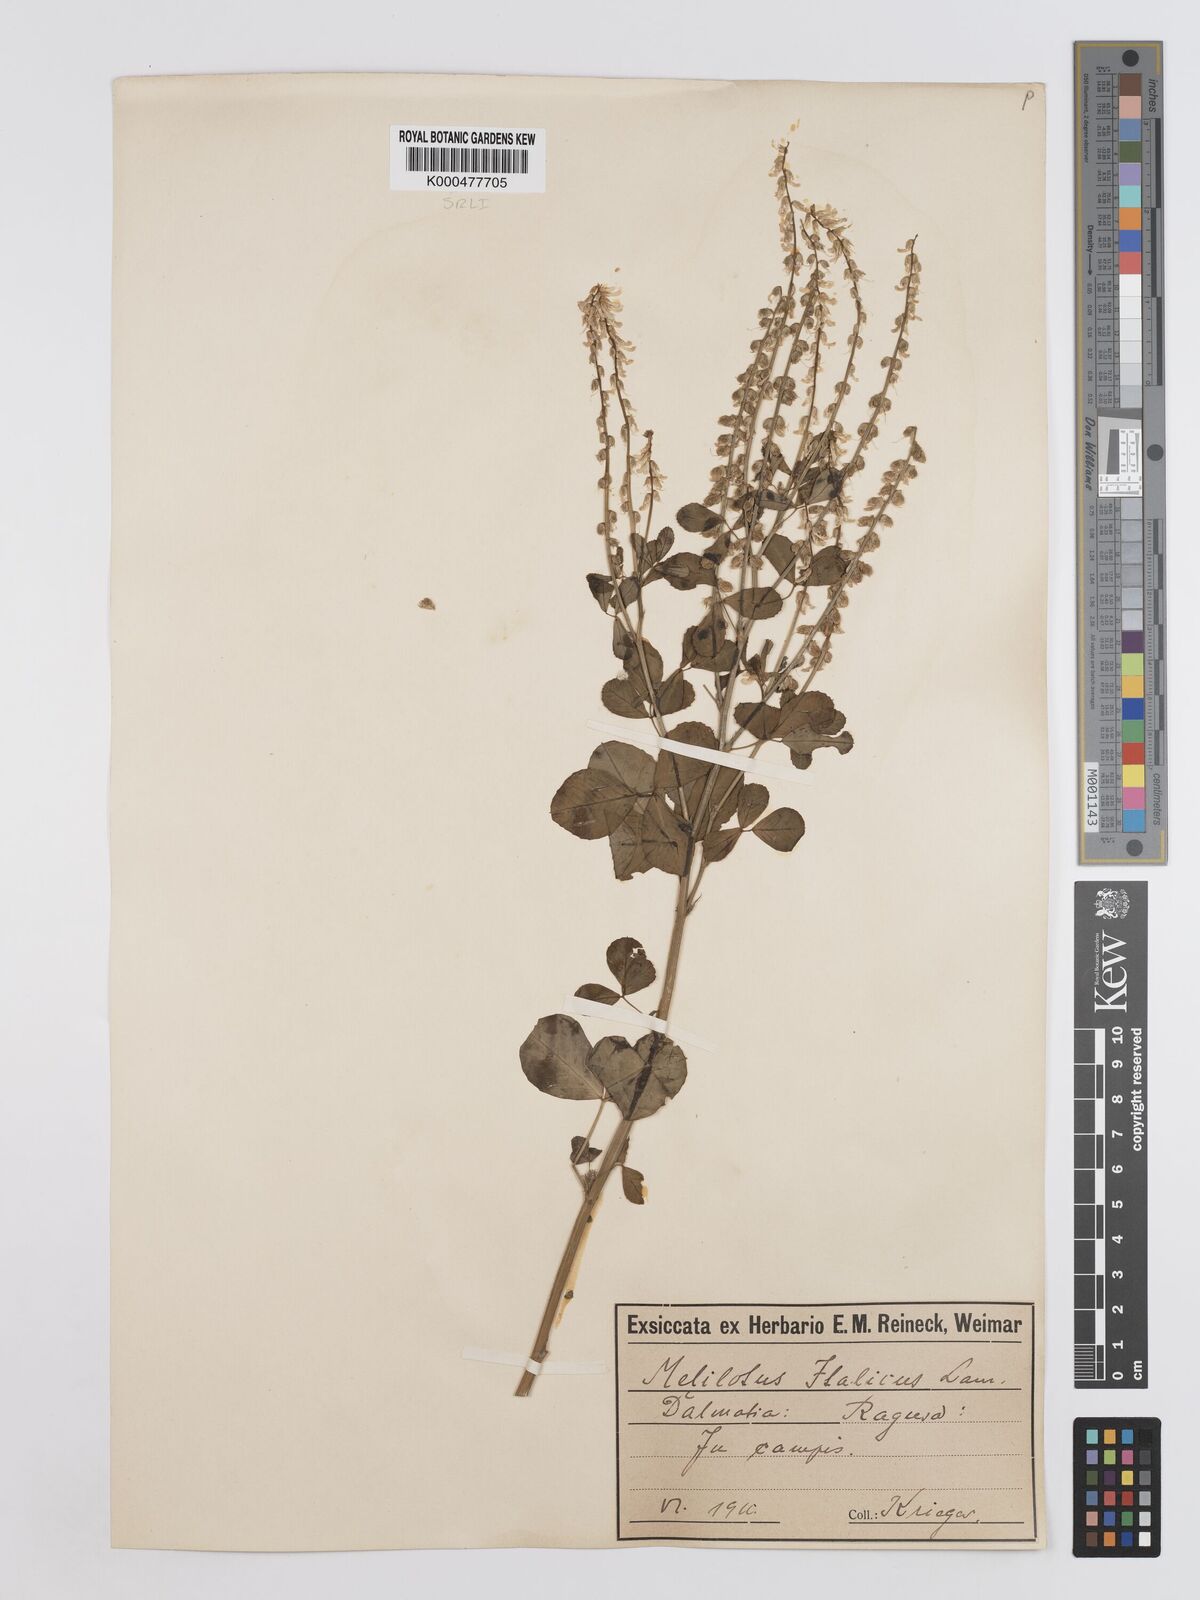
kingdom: Plantae
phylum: Tracheophyta
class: Magnoliopsida
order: Fabales
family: Fabaceae
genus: Melilotus
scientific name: Melilotus italicus
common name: Italian melilot
